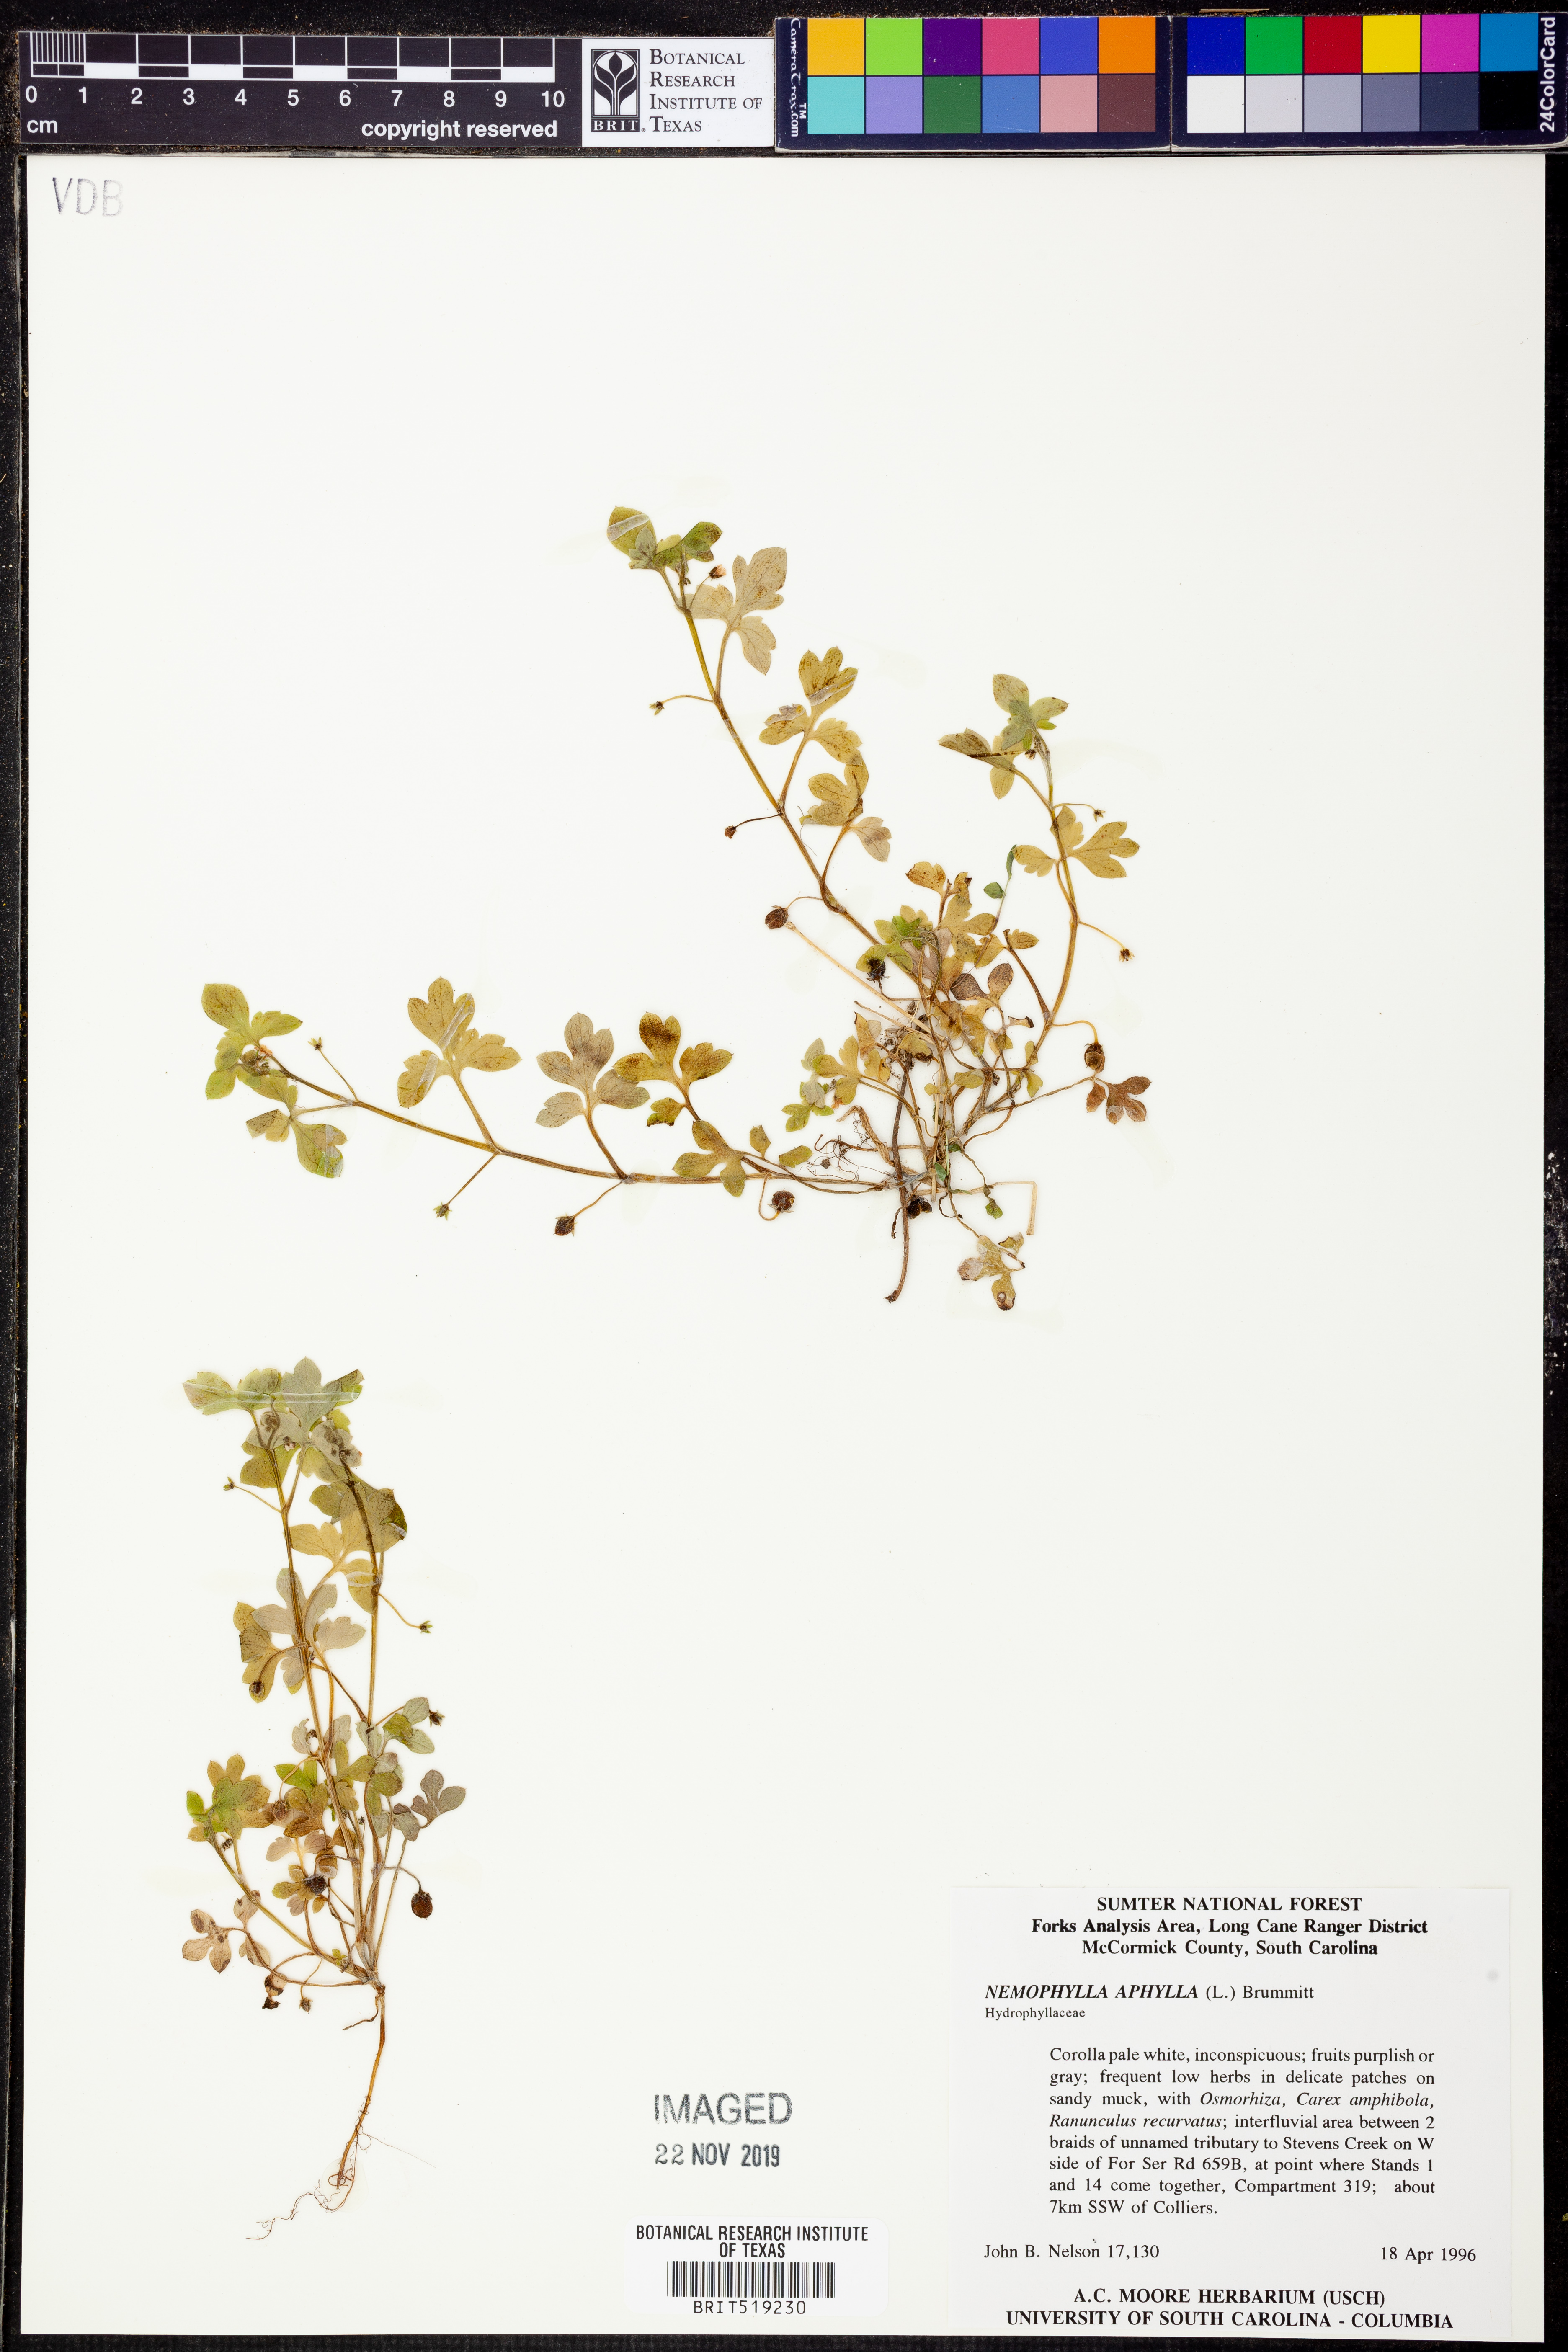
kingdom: Plantae
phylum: Tracheophyta
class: Magnoliopsida
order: Boraginales
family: Hydrophyllaceae
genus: Nemophila
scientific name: Nemophila aphylla
